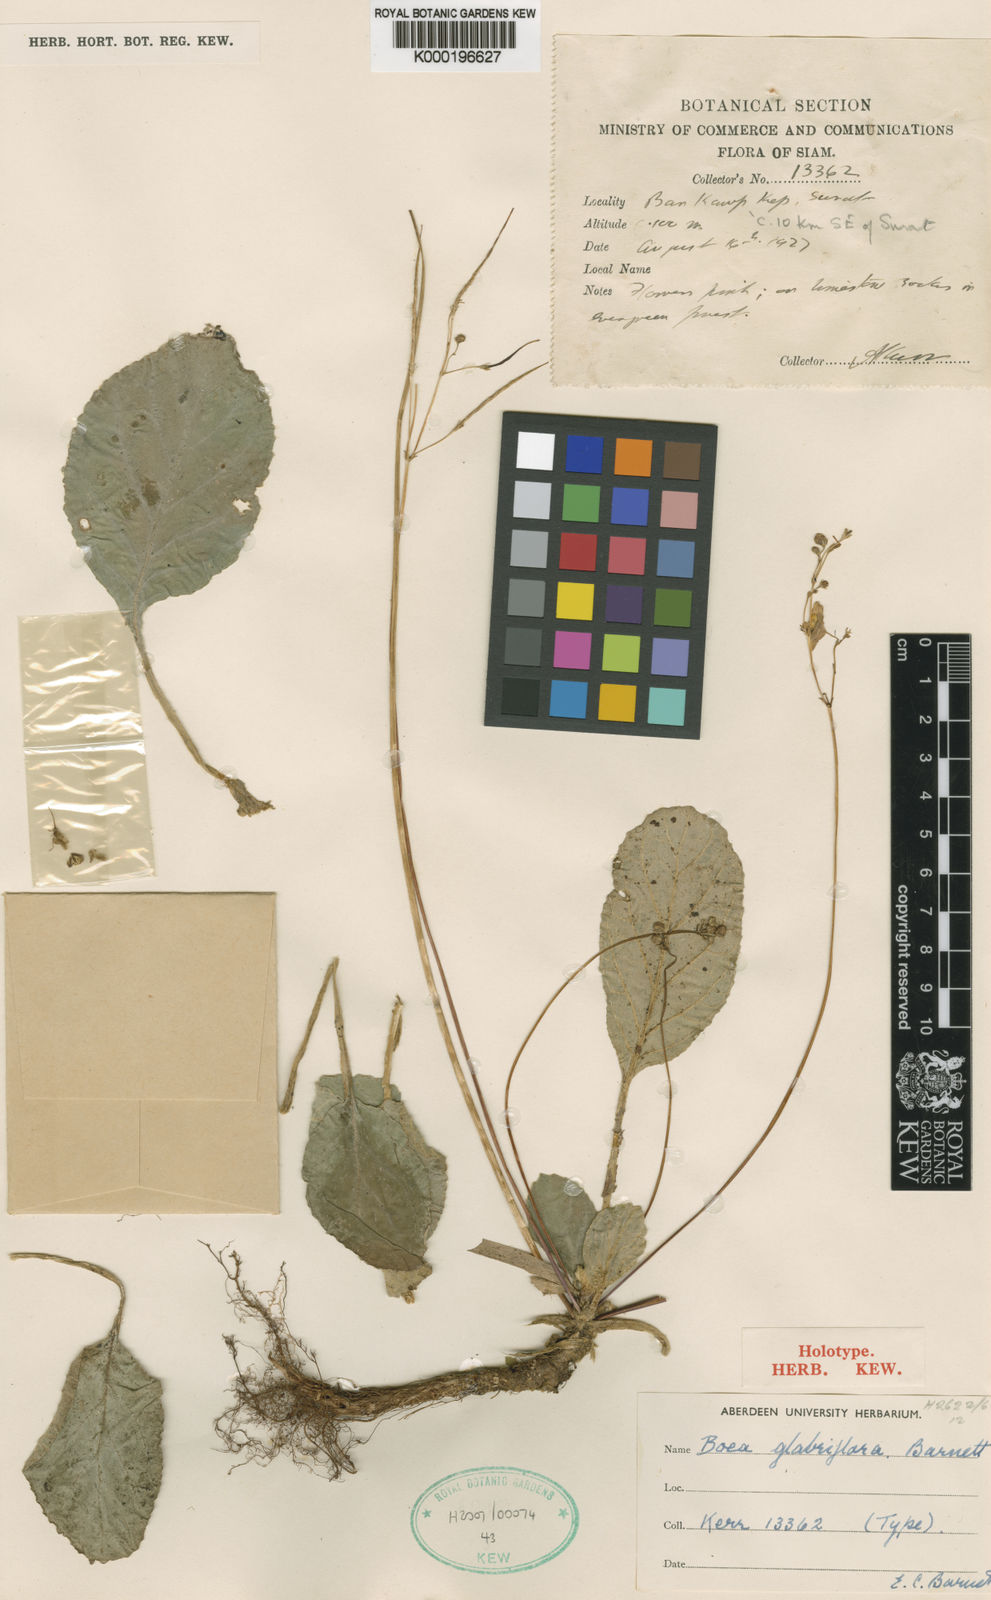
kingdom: Plantae
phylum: Tracheophyta
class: Magnoliopsida
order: Lamiales
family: Gesneriaceae
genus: Paraboea
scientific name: Paraboea glabriflora
